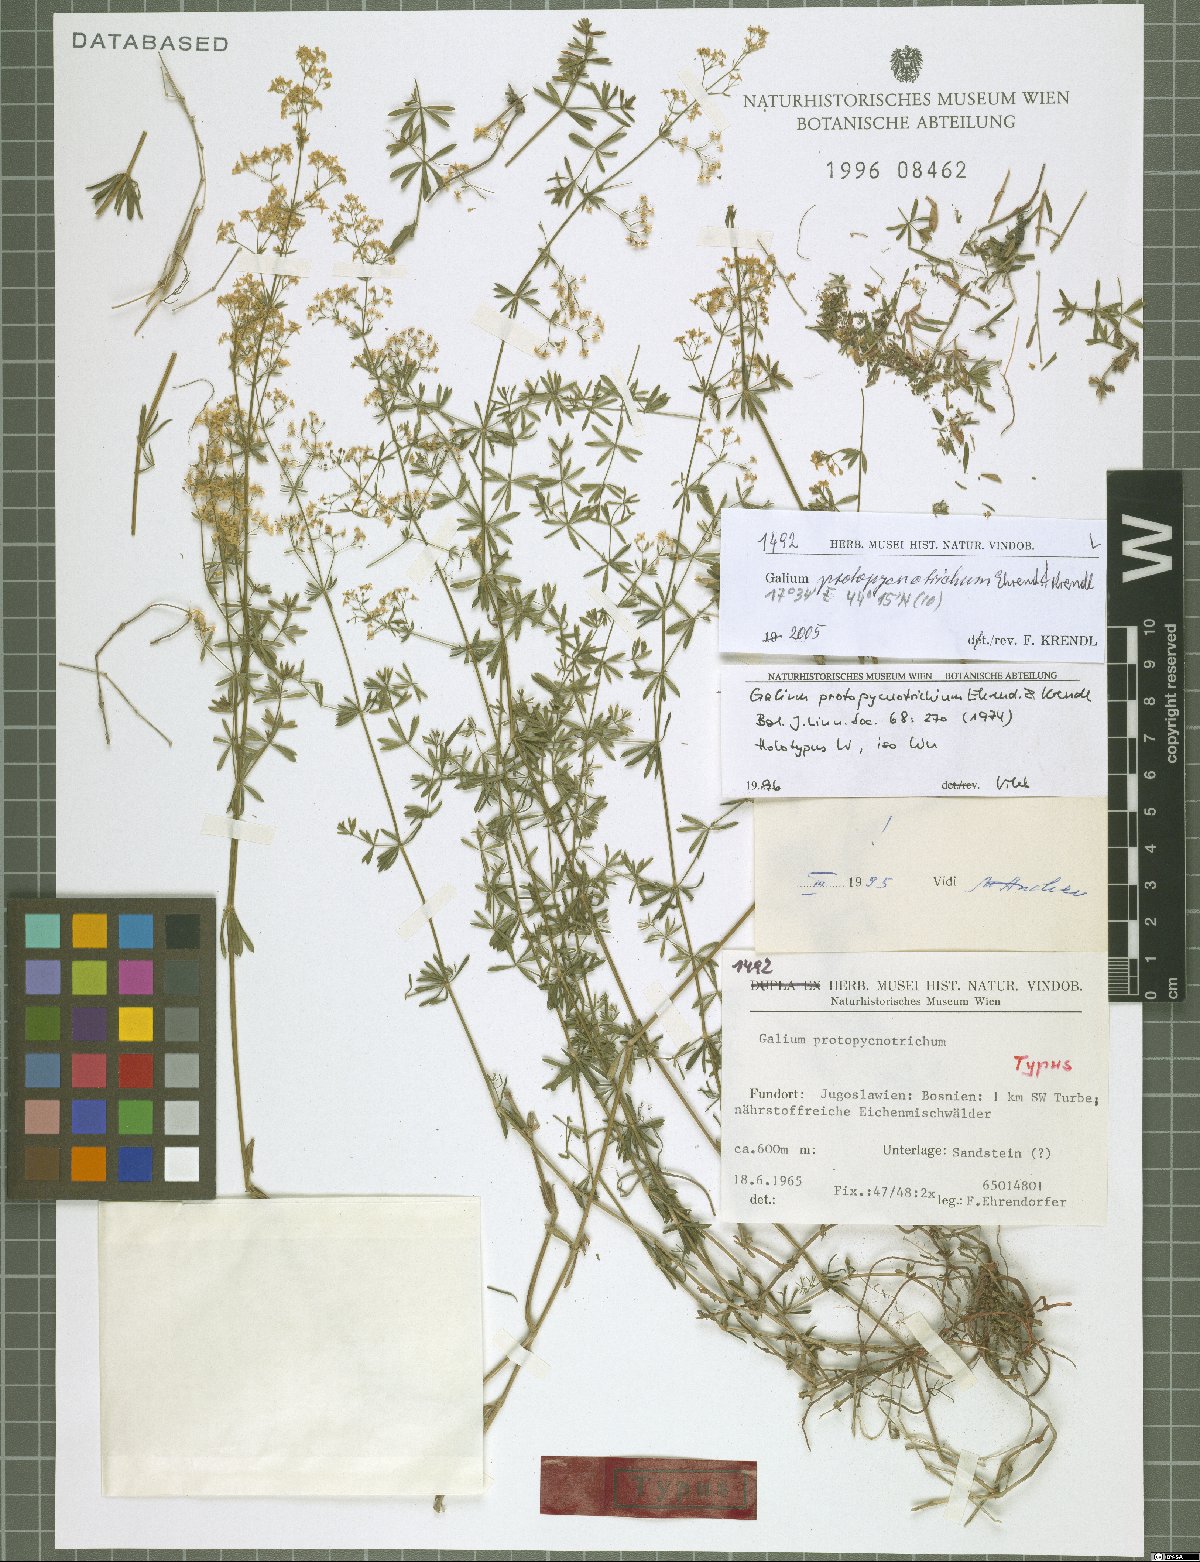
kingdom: Plantae
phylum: Tracheophyta
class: Magnoliopsida
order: Gentianales
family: Rubiaceae
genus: Galium
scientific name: Galium lovcense
